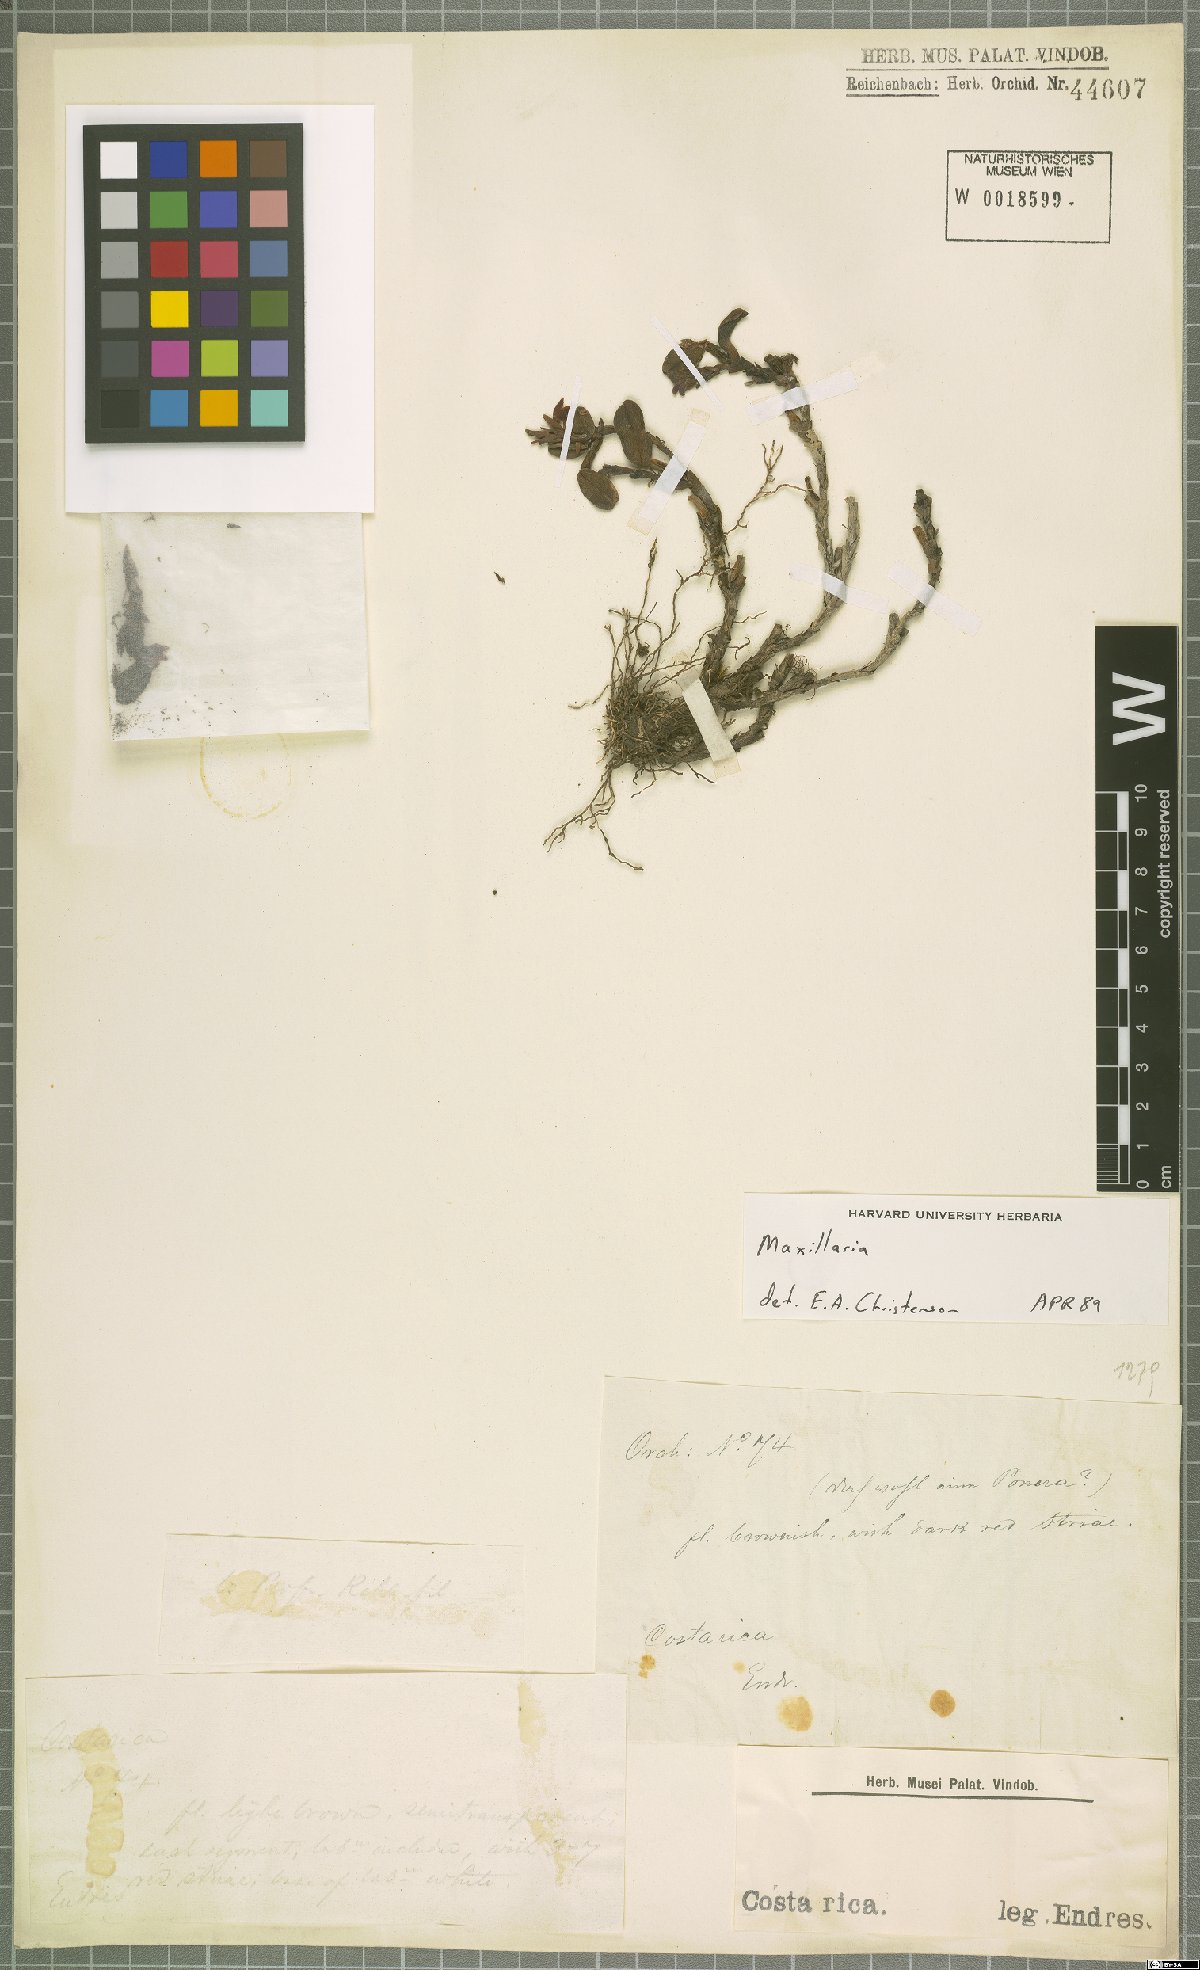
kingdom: Plantae
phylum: Tracheophyta
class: Liliopsida
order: Asparagales
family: Orchidaceae
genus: Maxillaria
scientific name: Maxillaria
